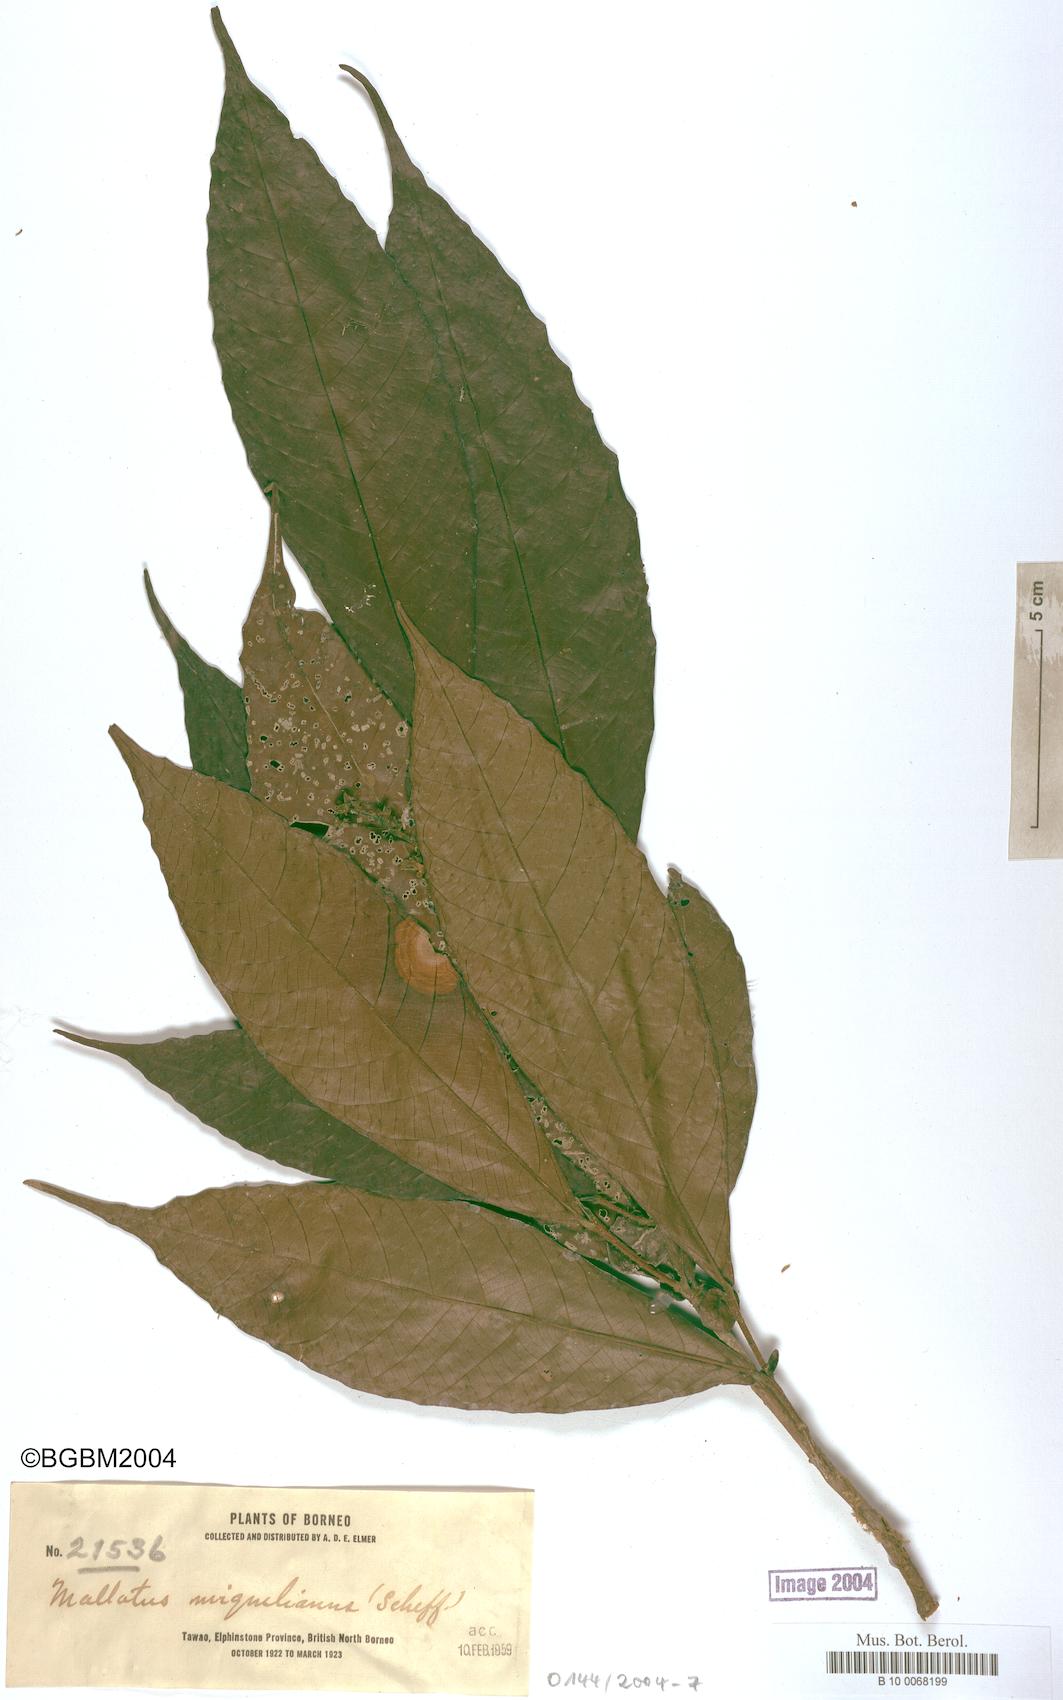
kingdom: Plantae
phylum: Tracheophyta
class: Magnoliopsida
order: Malpighiales
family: Euphorbiaceae
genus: Mallotus
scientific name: Mallotus miquelianus
